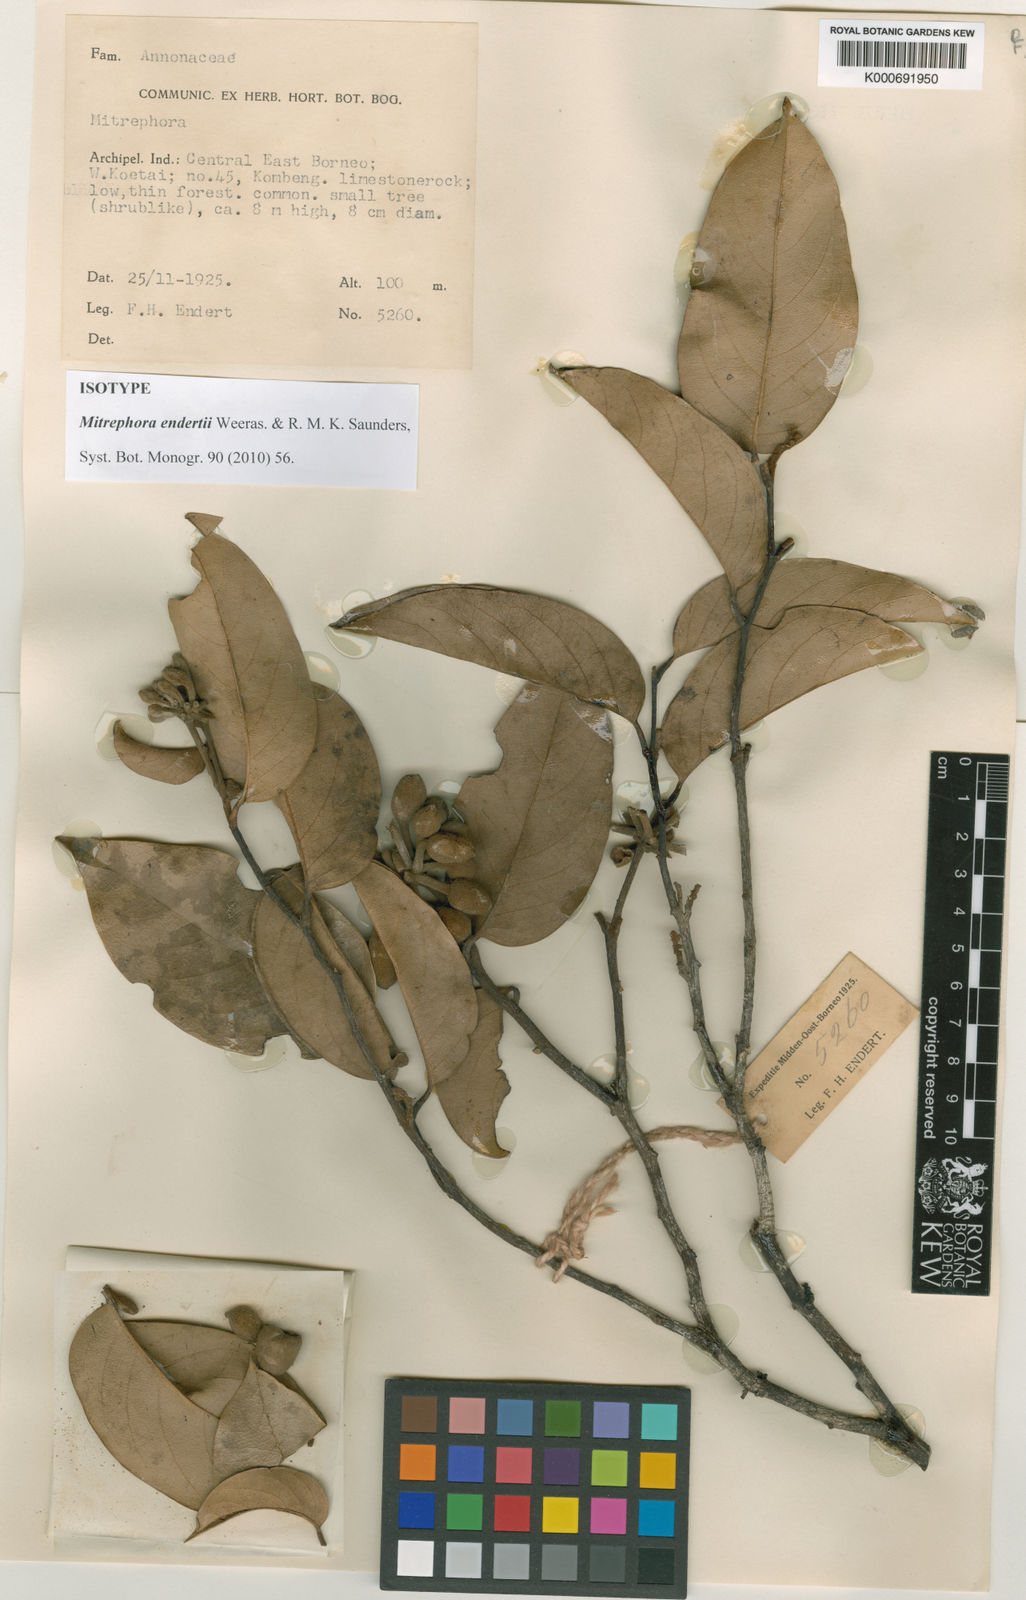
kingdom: Plantae
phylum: Tracheophyta
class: Magnoliopsida
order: Magnoliales
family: Annonaceae
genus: Mitrephora
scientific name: Mitrephora endertii
